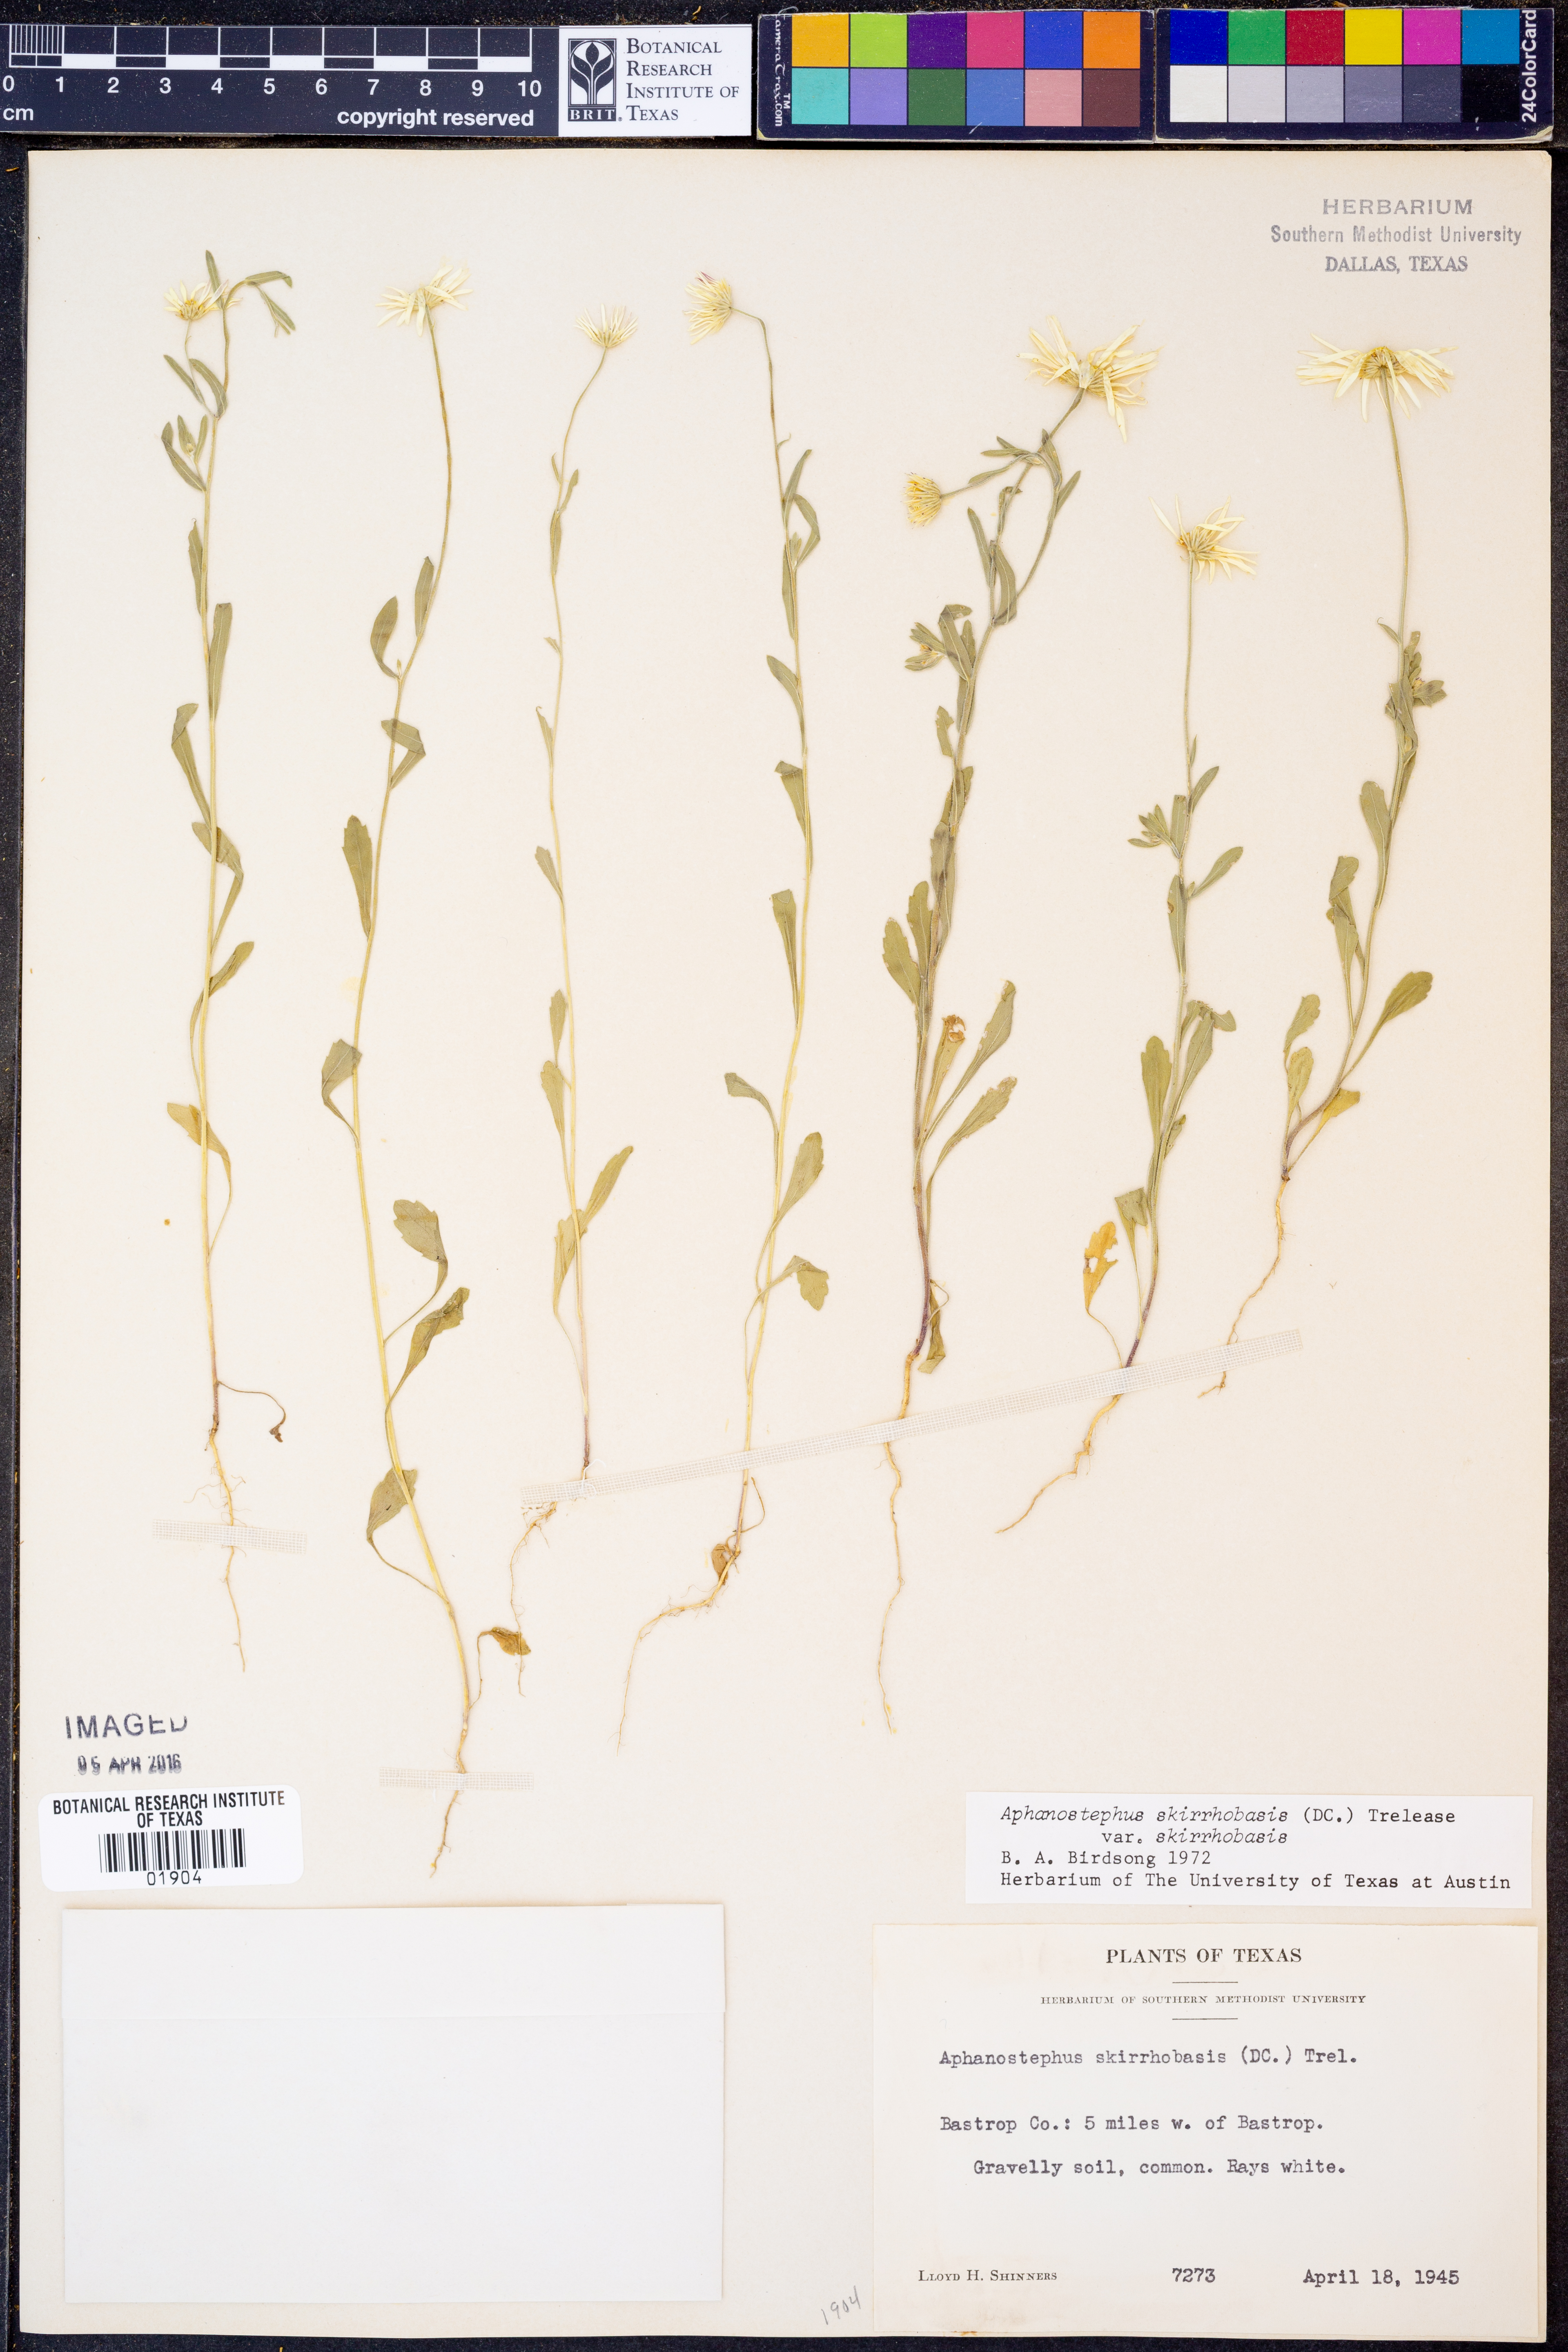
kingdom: Plantae
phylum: Tracheophyta
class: Magnoliopsida
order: Asterales
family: Asteraceae
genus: Aphanostephus
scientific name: Aphanostephus skirrhobasis
